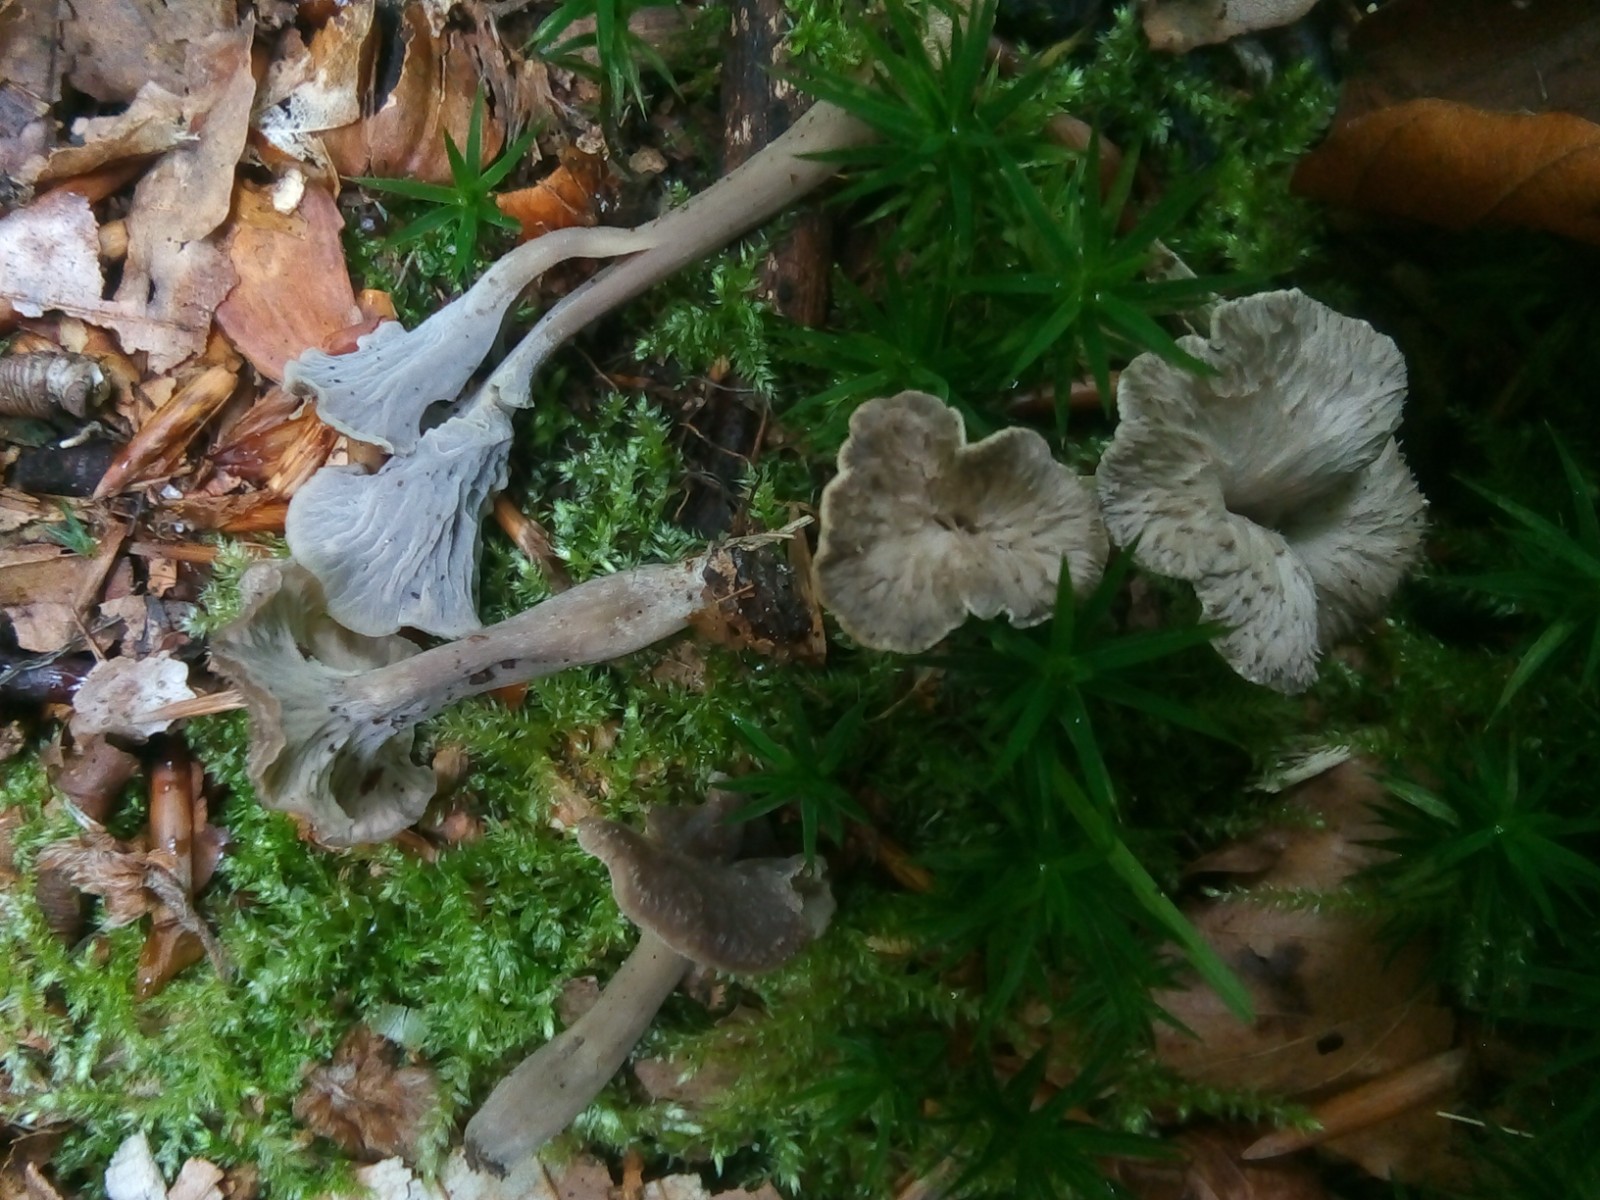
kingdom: Fungi
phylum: Basidiomycota
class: Agaricomycetes
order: Cantharellales
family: Hydnaceae
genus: Craterellus
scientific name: Craterellus undulatus
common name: liden kantarel
